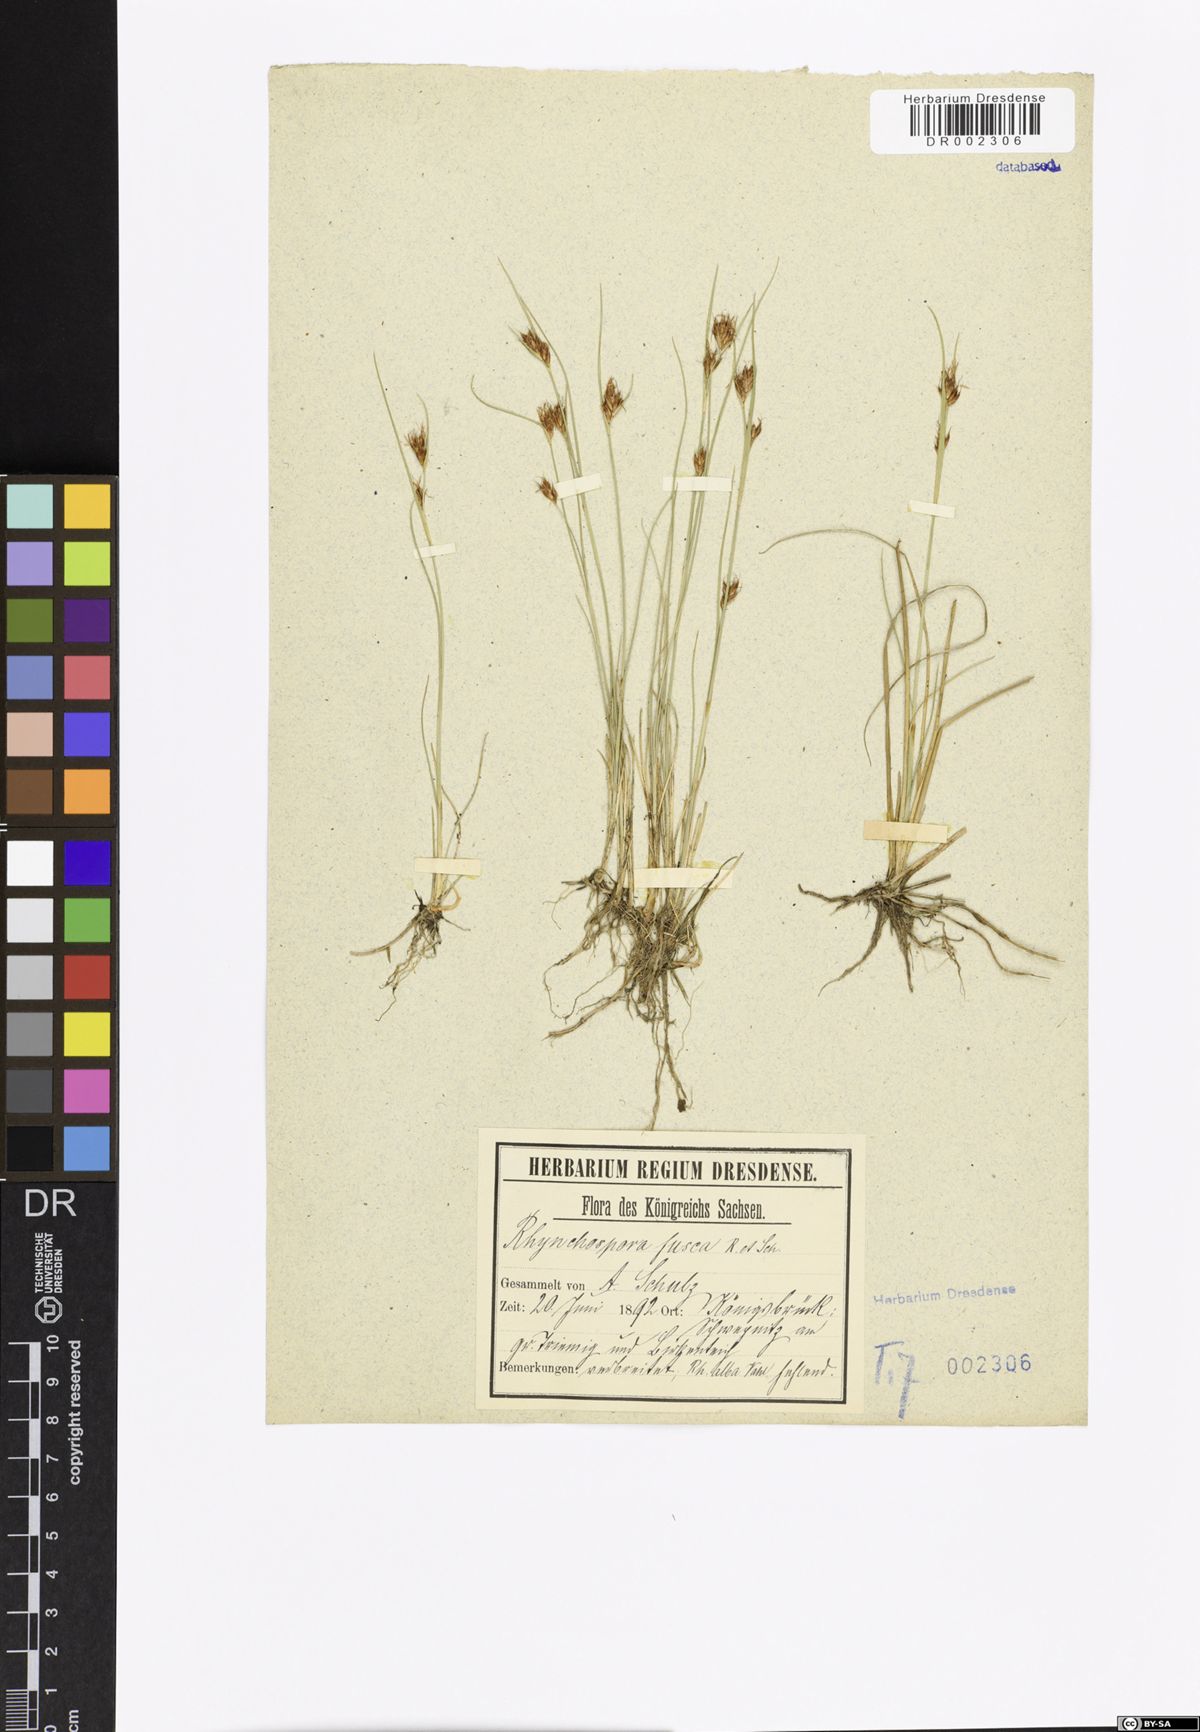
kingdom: Plantae
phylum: Tracheophyta
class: Liliopsida
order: Poales
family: Cyperaceae
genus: Rhynchospora
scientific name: Rhynchospora fusca
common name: Brown beak-sedge
